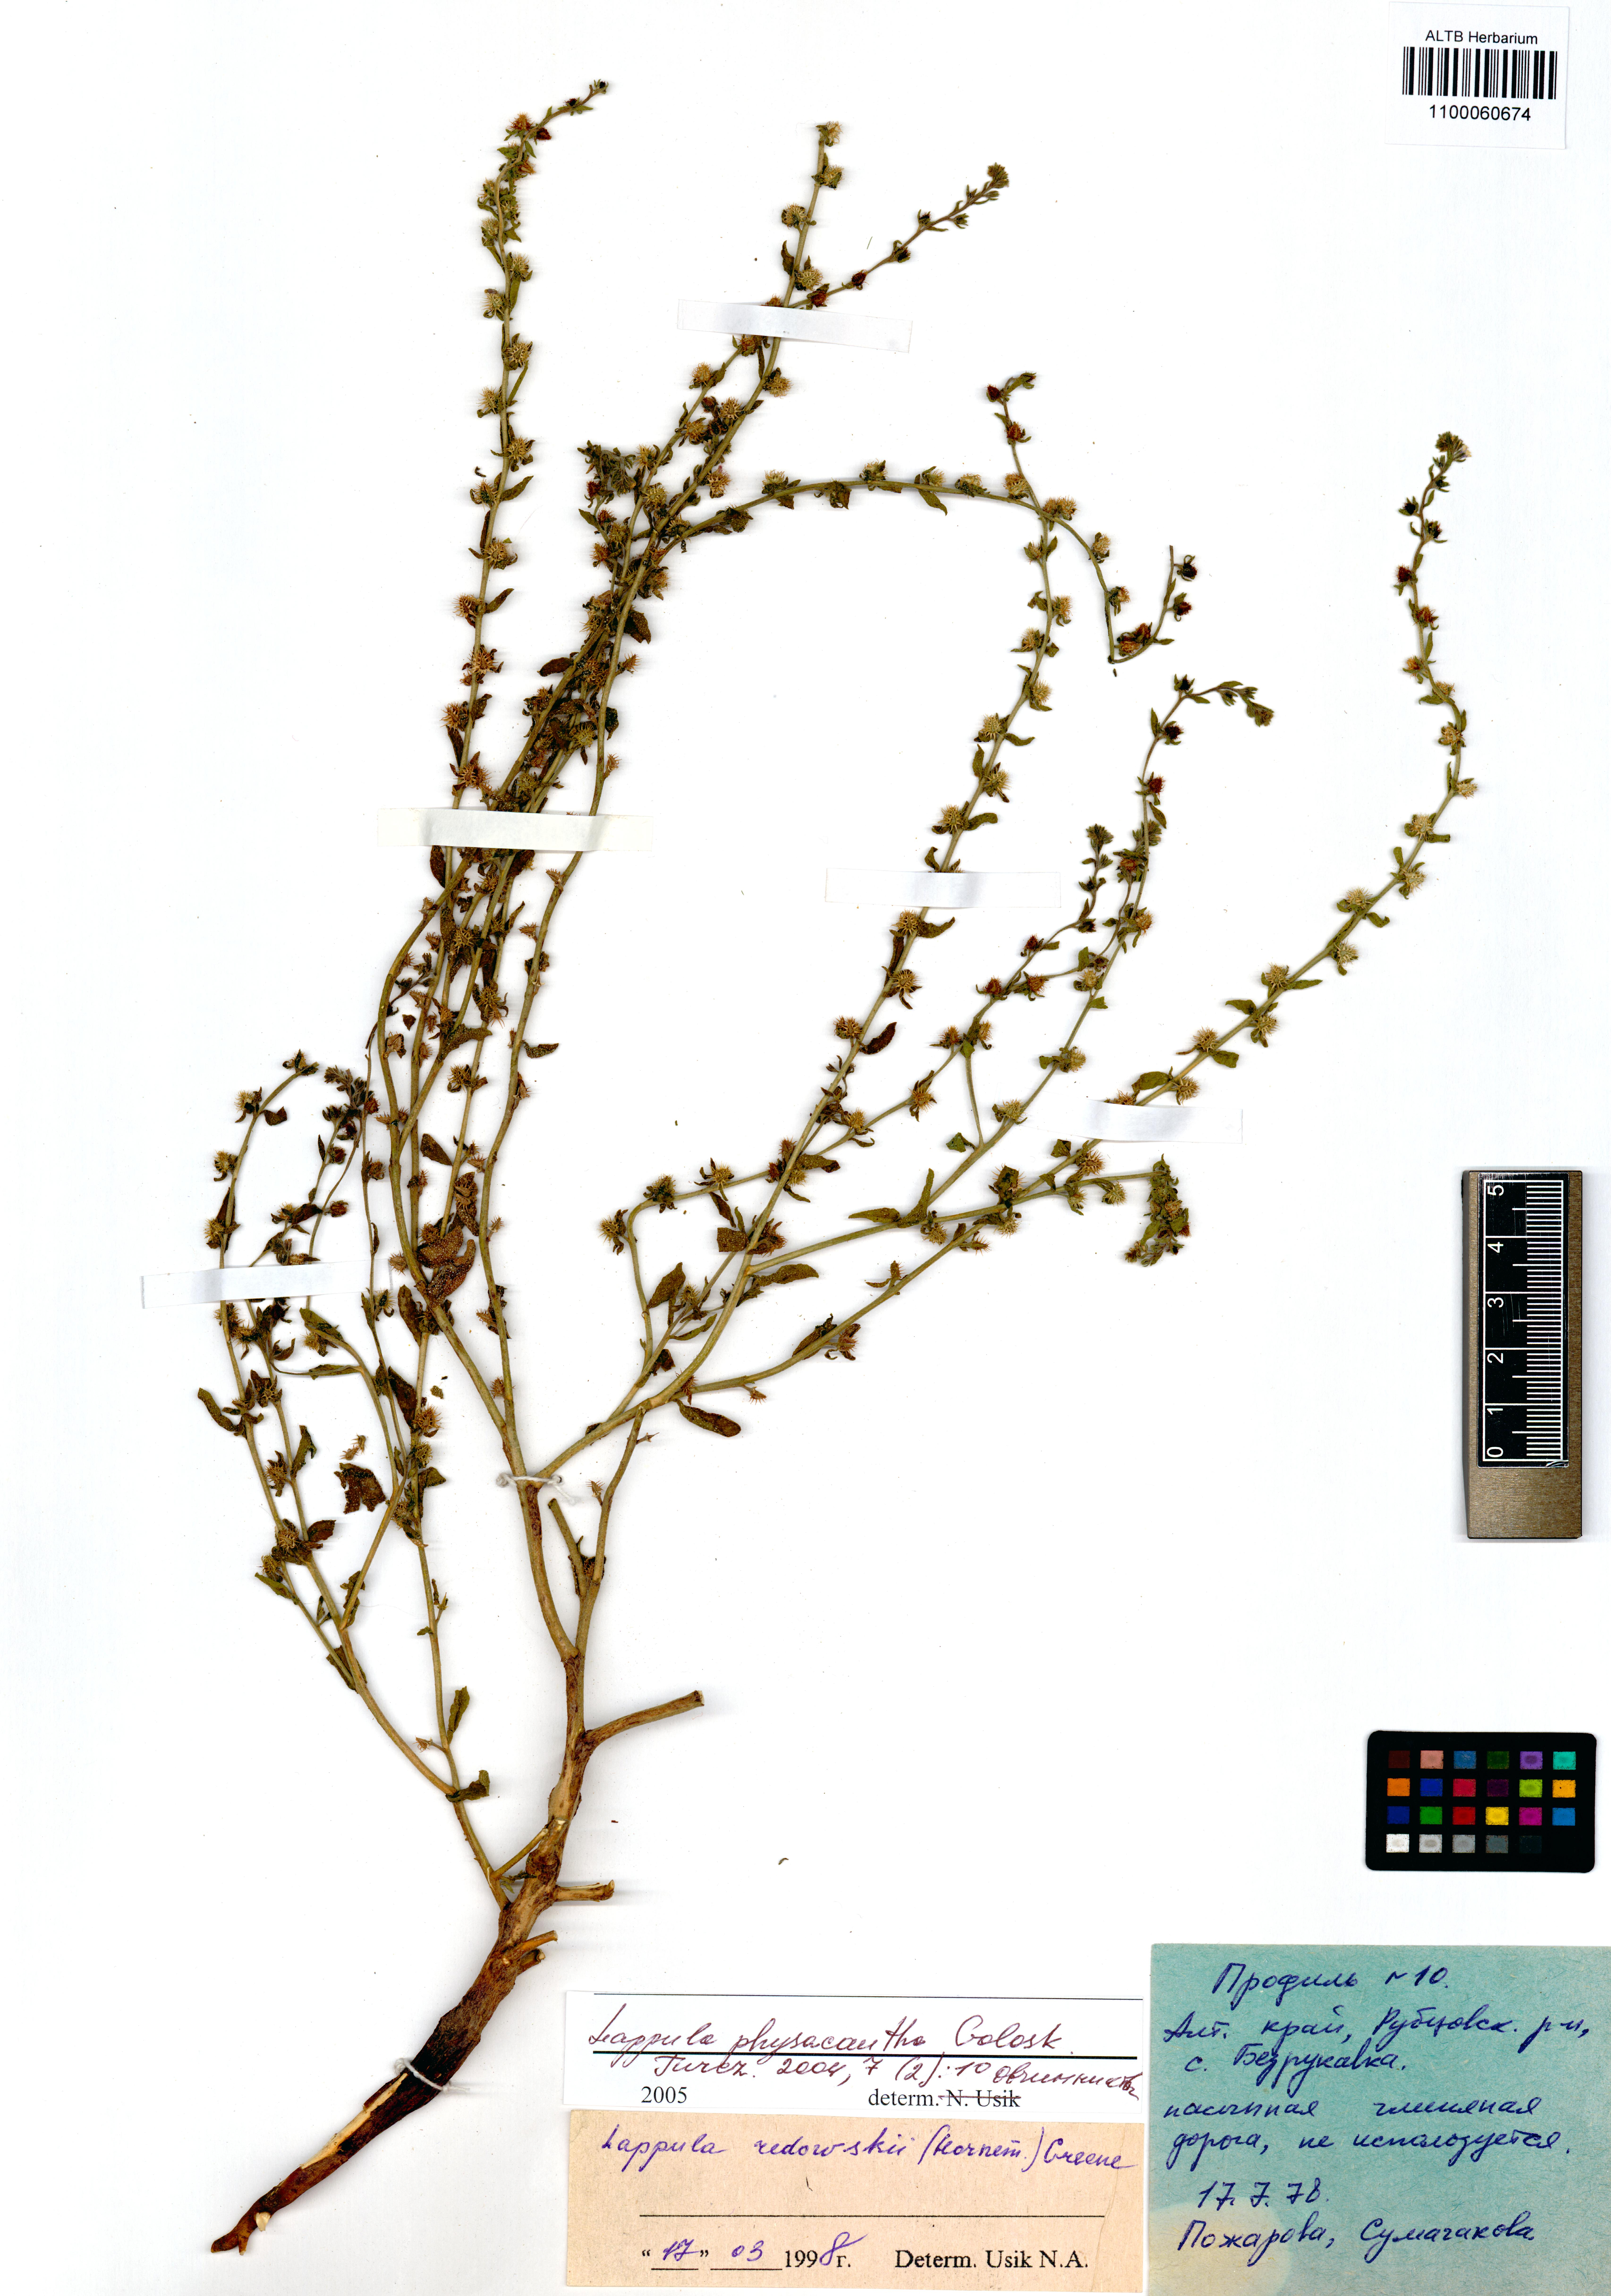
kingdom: Plantae
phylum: Tracheophyta
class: Magnoliopsida
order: Boraginales
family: Boraginaceae
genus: Lappula
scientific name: Lappula physacantha
